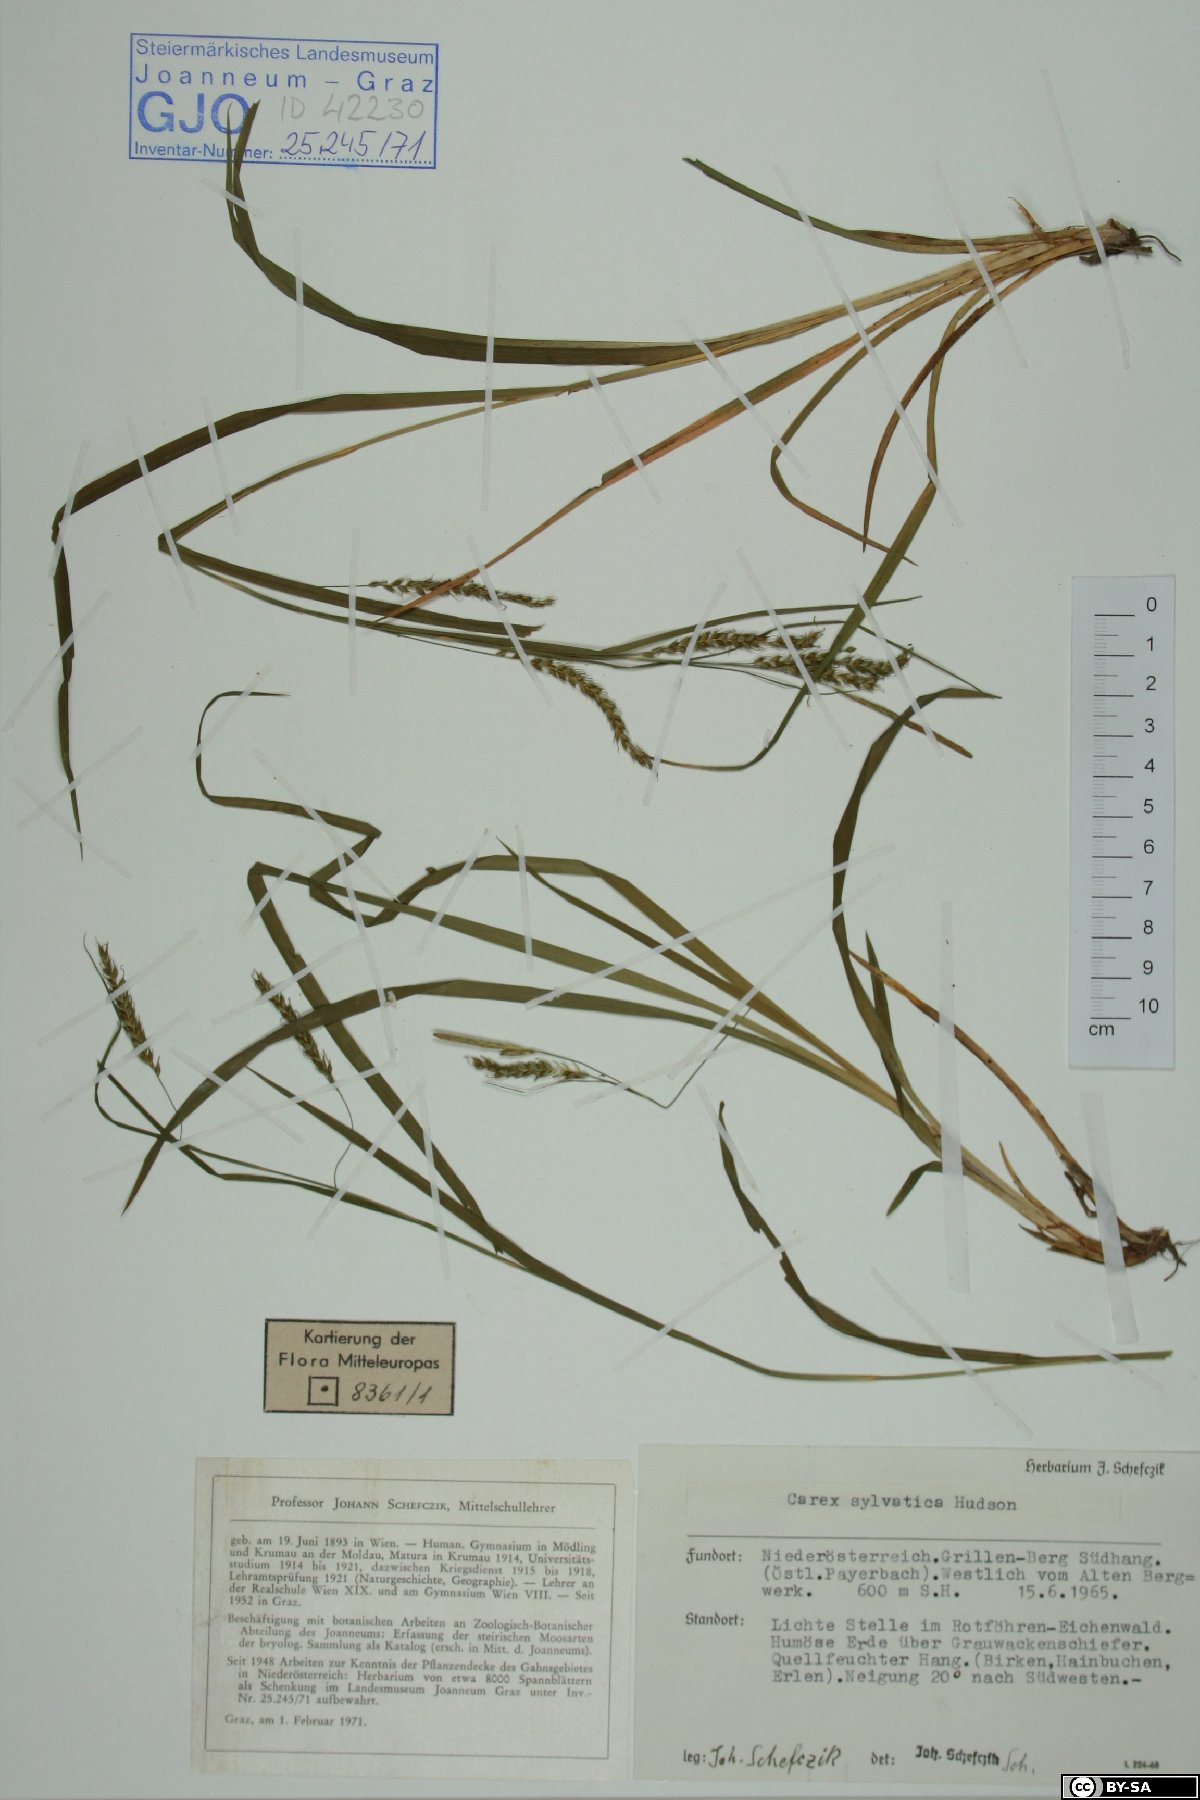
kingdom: Plantae
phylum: Tracheophyta
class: Liliopsida
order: Poales
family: Cyperaceae
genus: Carex
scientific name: Carex sylvatica
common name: Wood-sedge
